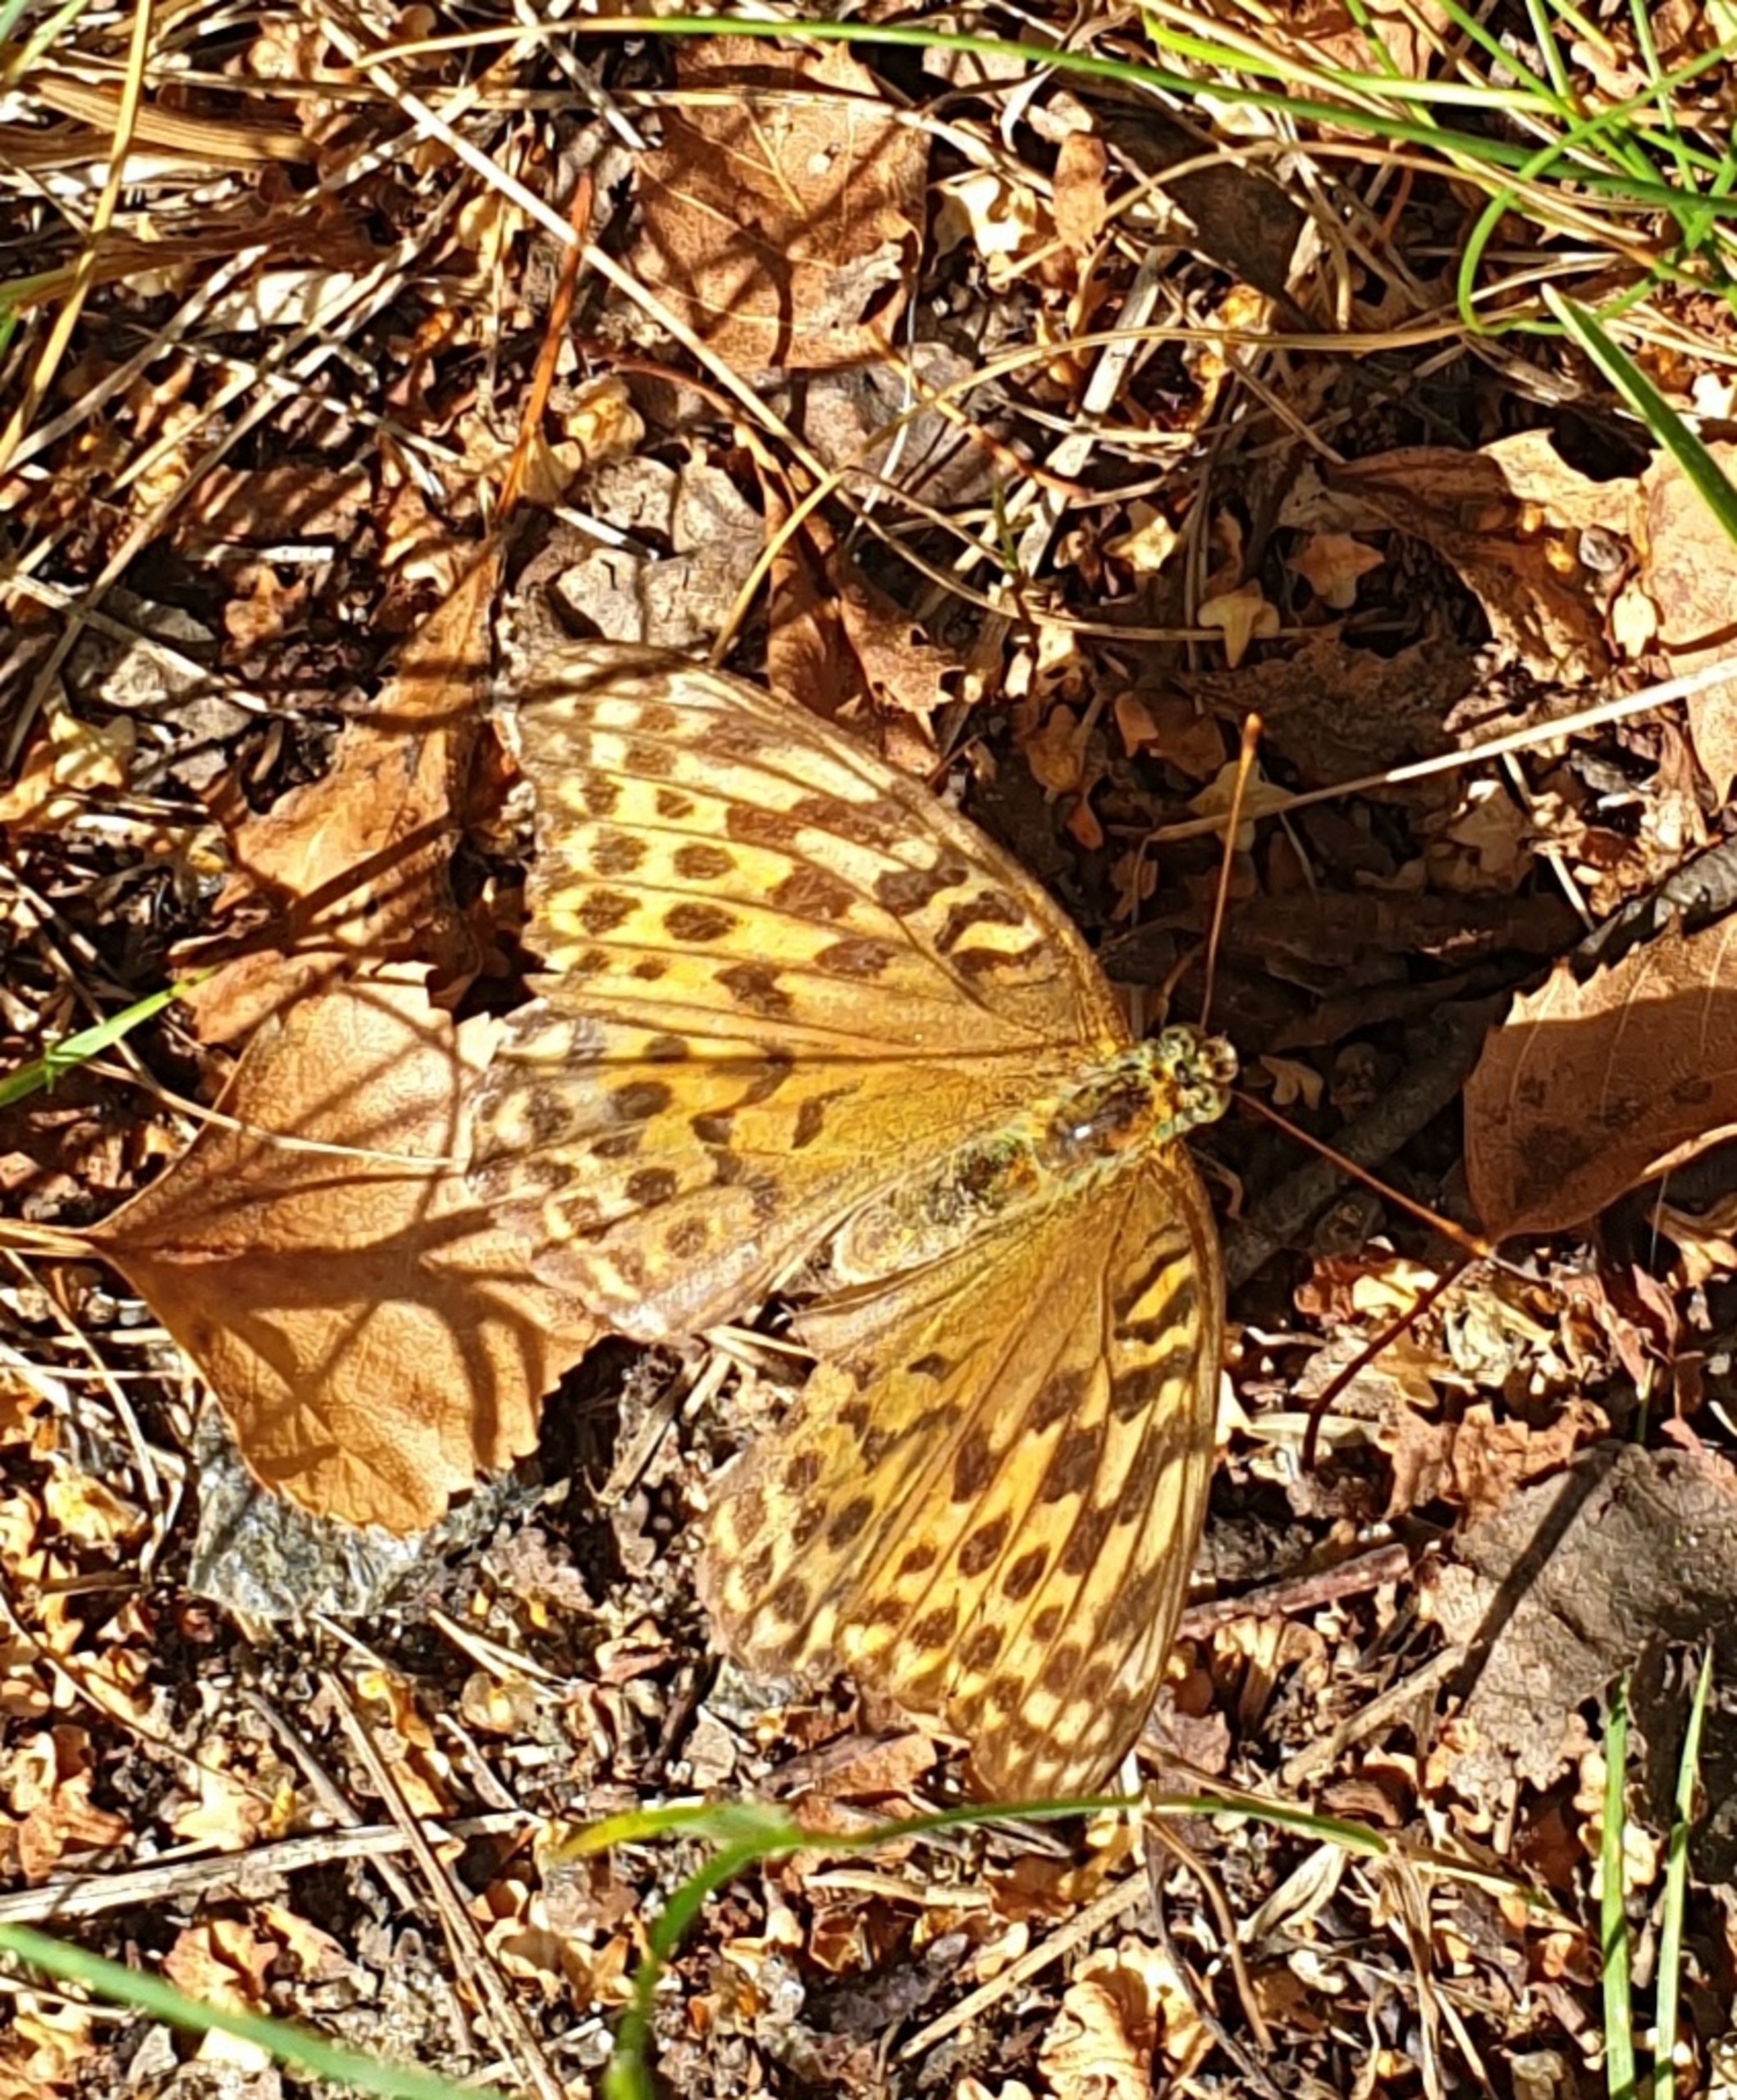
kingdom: Animalia
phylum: Arthropoda
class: Insecta
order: Lepidoptera
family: Nymphalidae
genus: Argynnis
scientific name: Argynnis paphia
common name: Kejserkåbe
